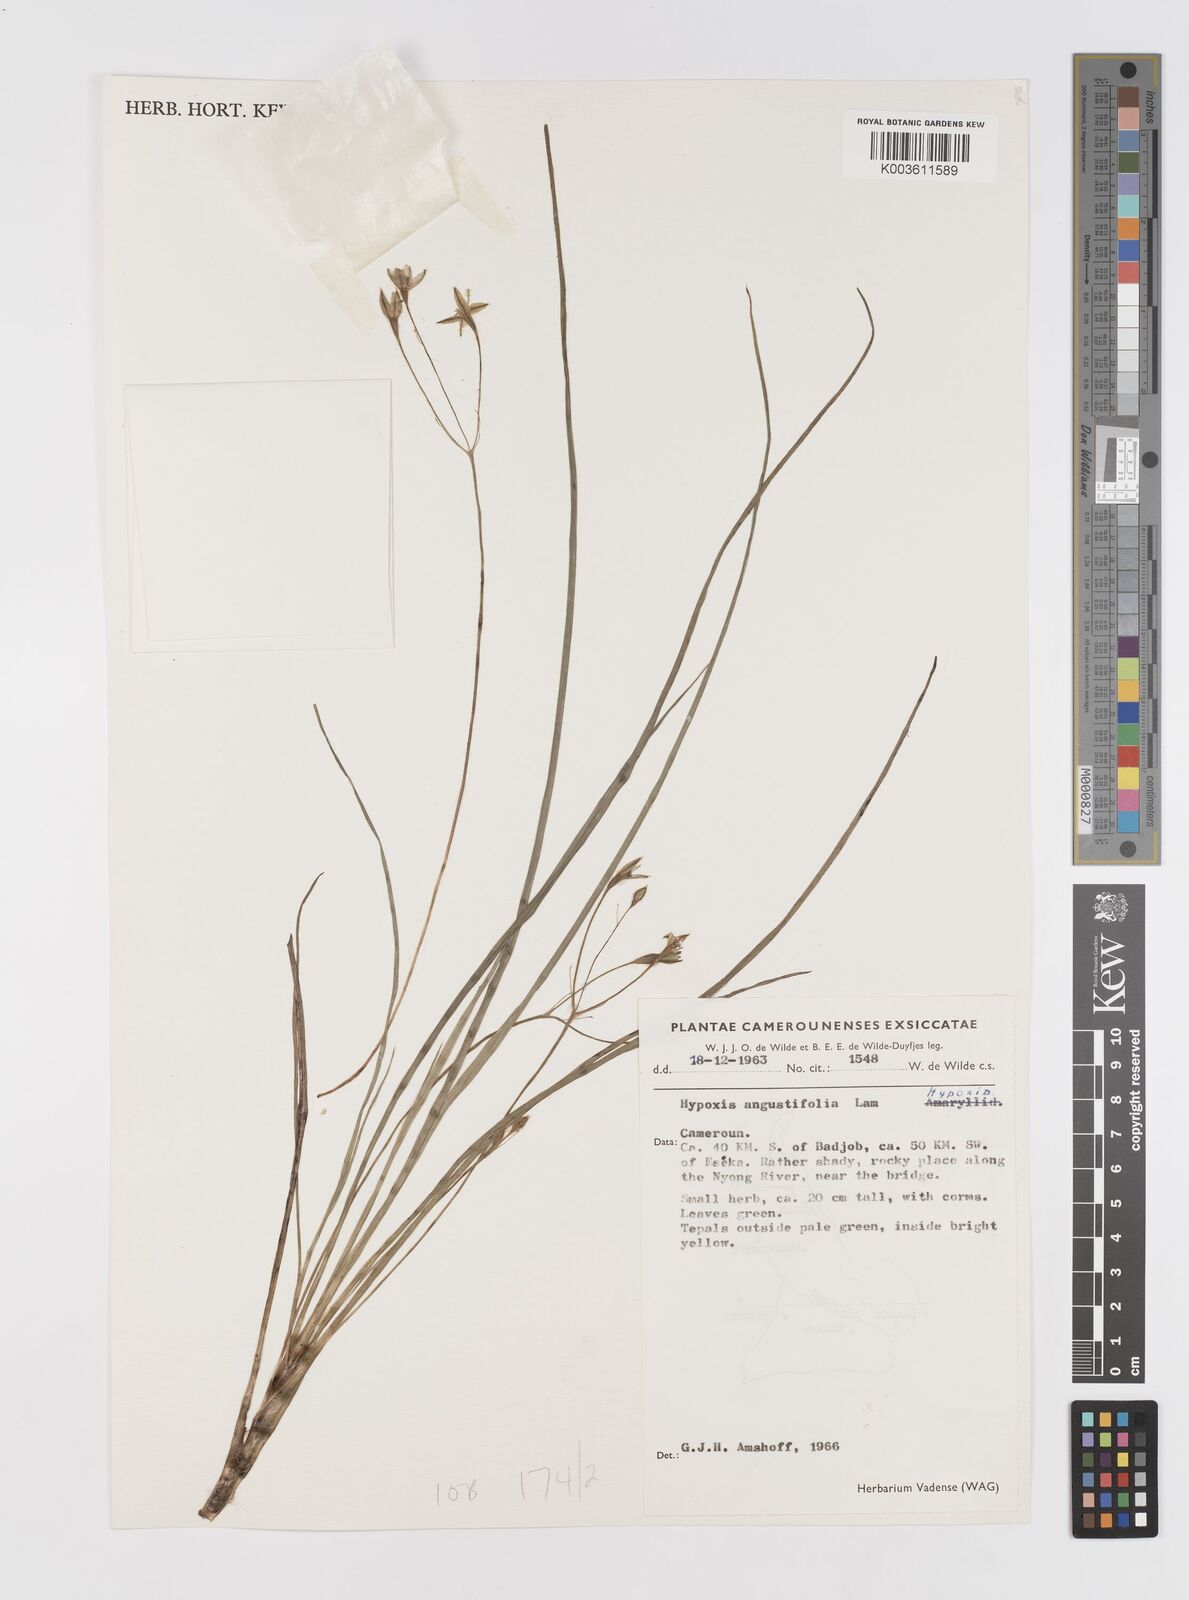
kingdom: Plantae
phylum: Tracheophyta
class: Liliopsida
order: Asparagales
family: Hypoxidaceae
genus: Hypoxis
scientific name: Hypoxis angustifolia
